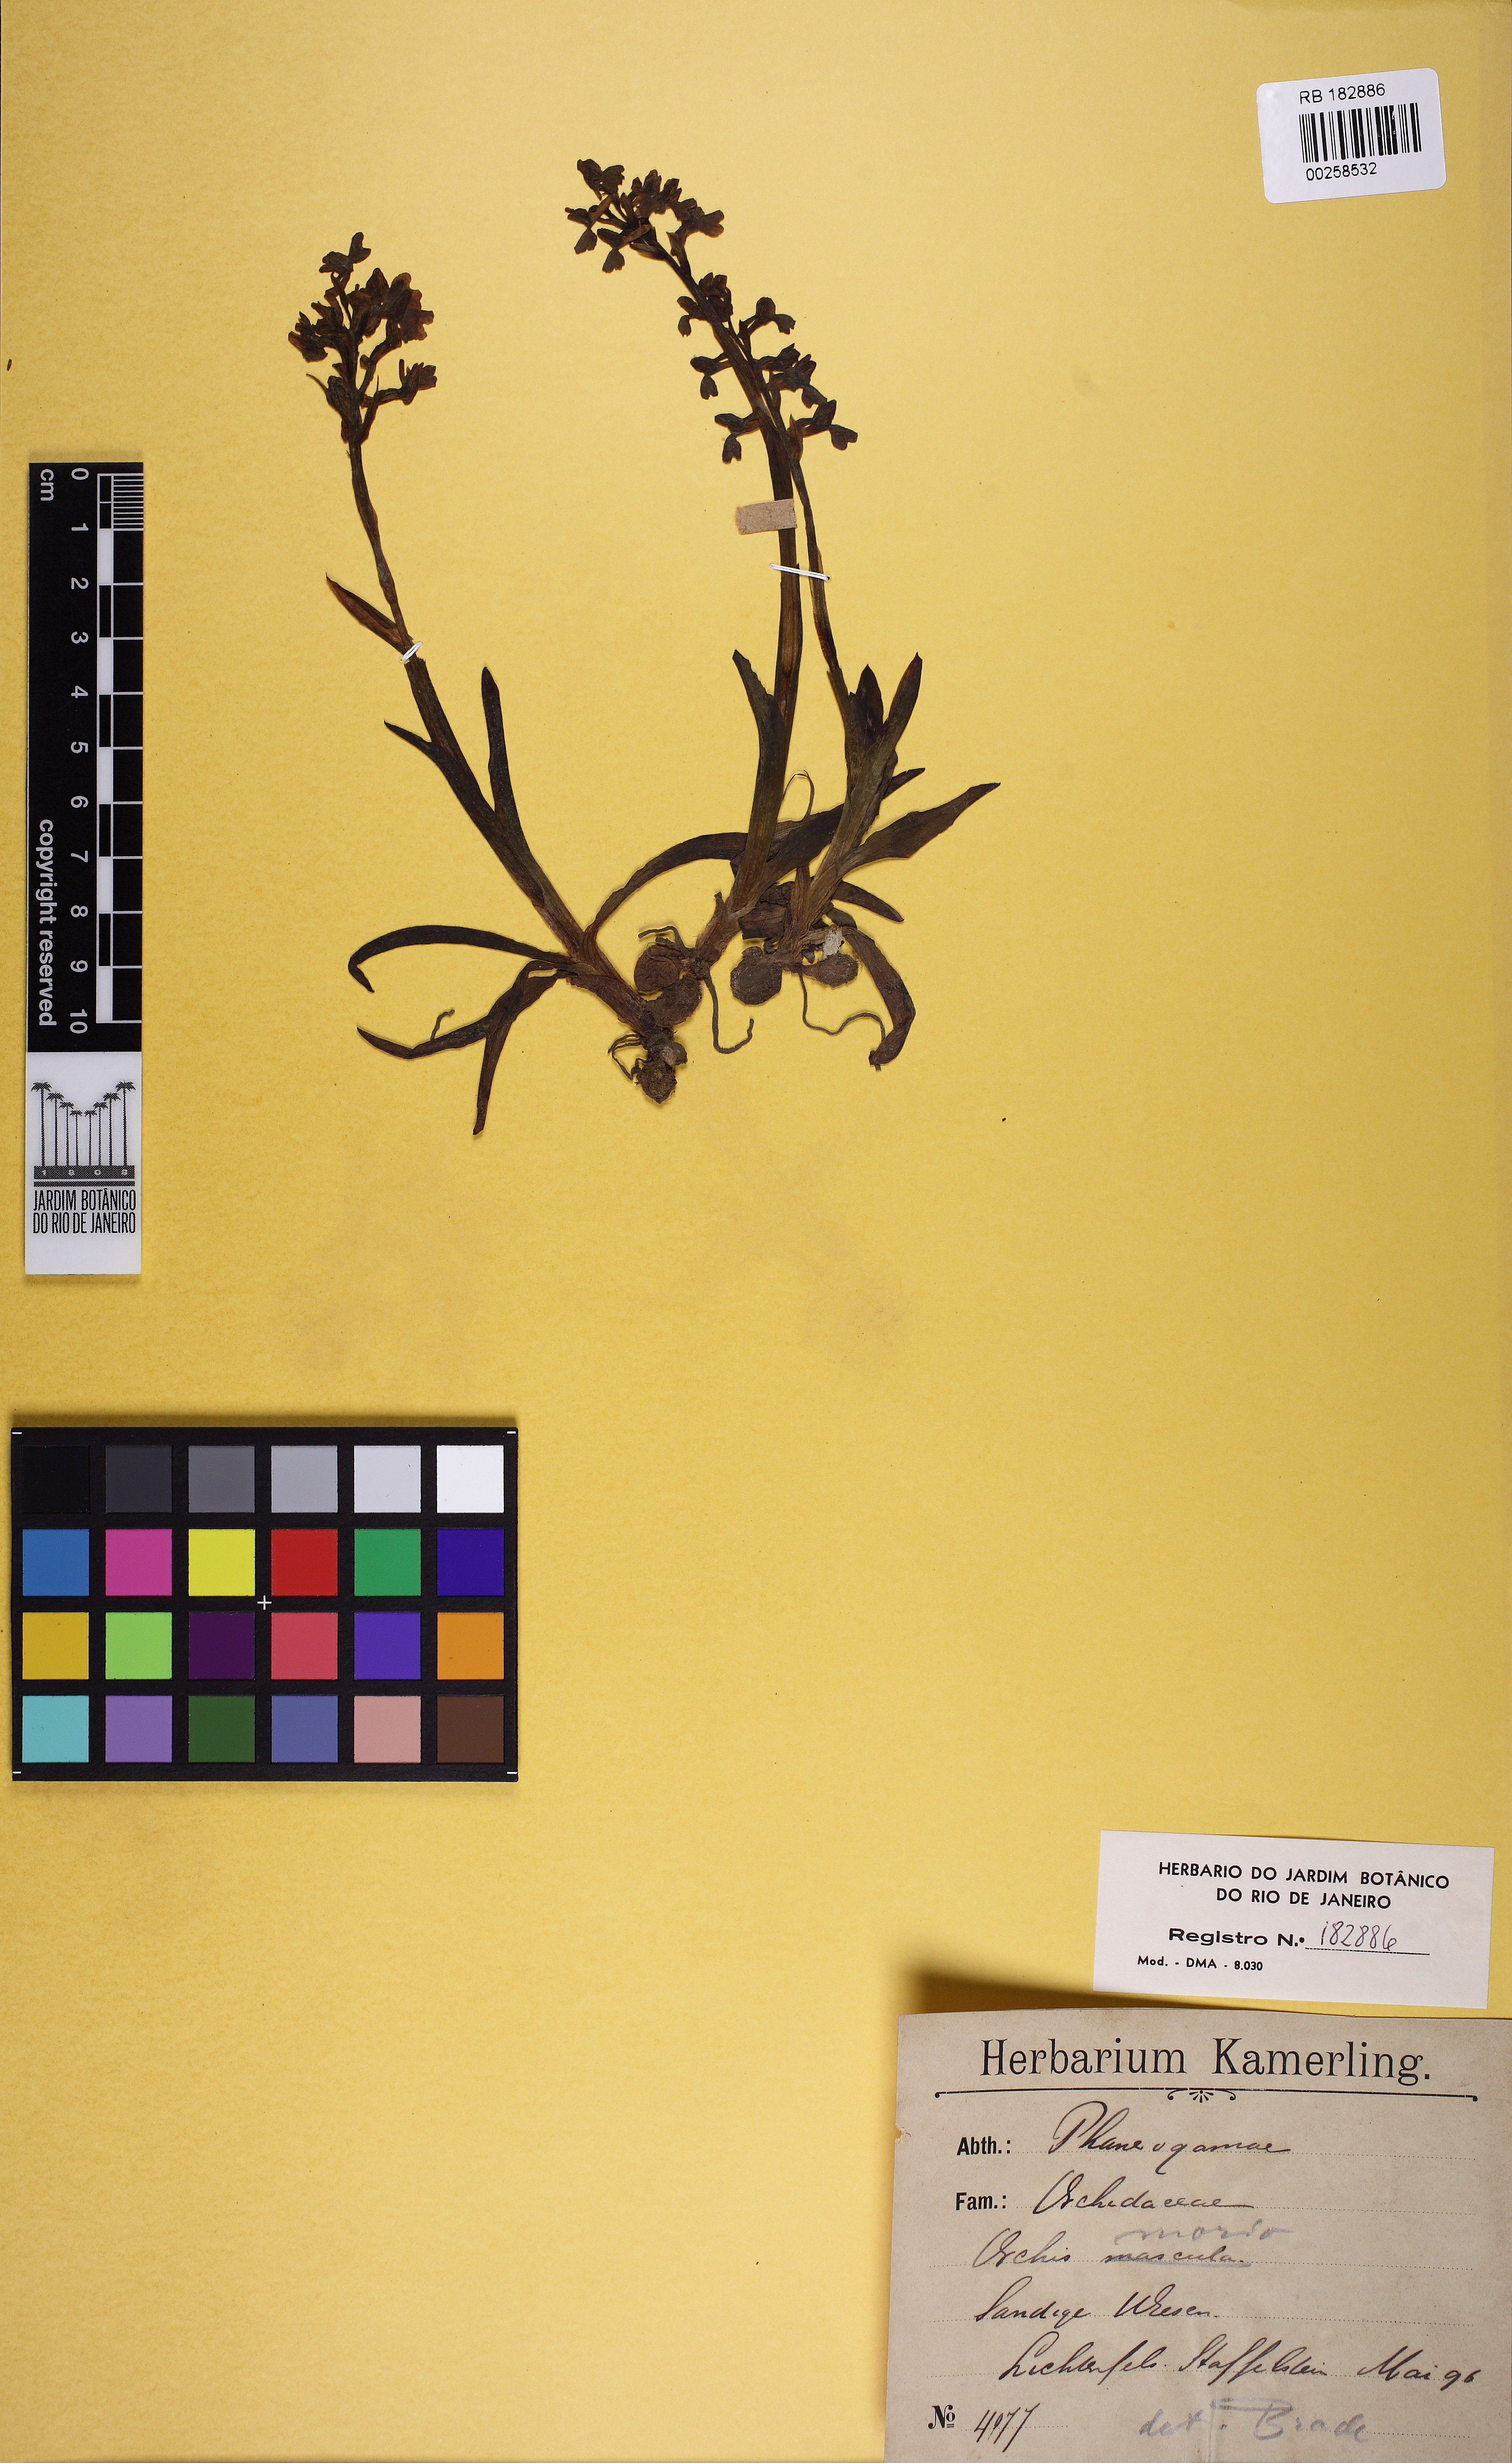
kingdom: Plantae
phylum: Tracheophyta
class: Liliopsida
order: Asparagales
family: Orchidaceae
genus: Anacamptis
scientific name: Anacamptis morio
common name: Green-winged orchid
